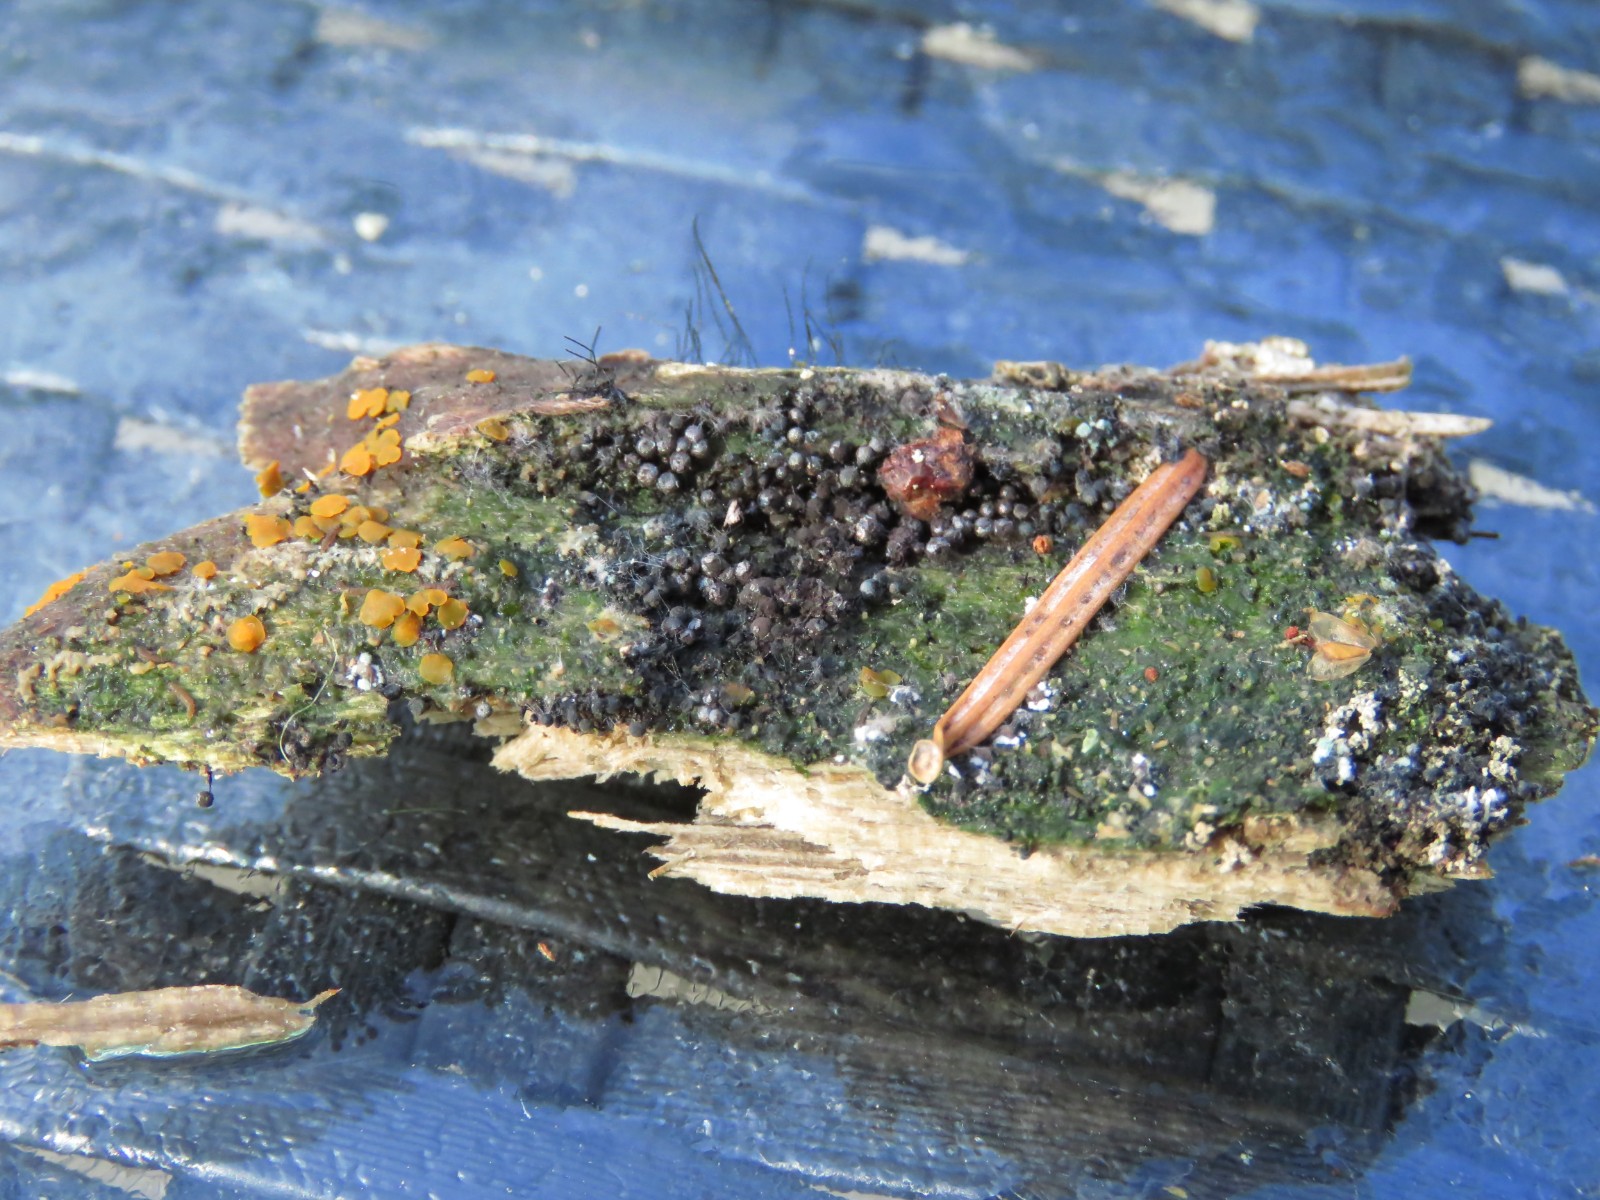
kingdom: Protozoa
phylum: Mycetozoa
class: Myxomycetes
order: Stemonitidales
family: Stemonitidaceae
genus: Collaria
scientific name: Collaria arcyrionema
